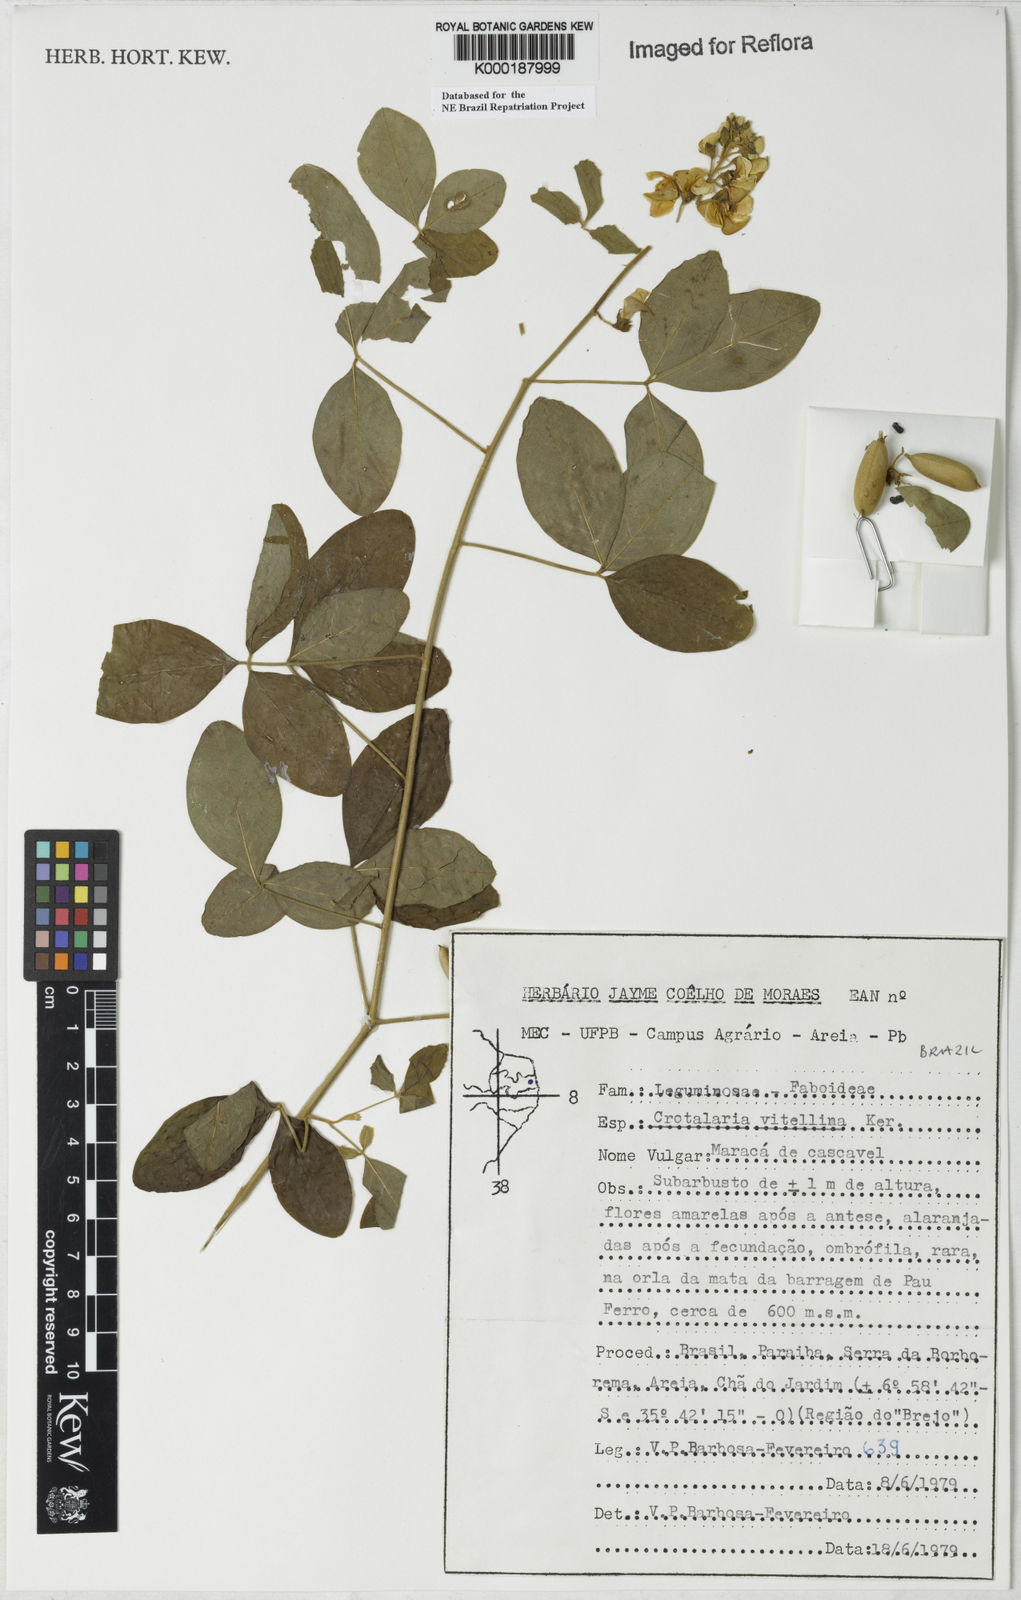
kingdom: Plantae
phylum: Tracheophyta
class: Magnoliopsida
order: Fabales
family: Fabaceae
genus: Crotalaria
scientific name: Crotalaria vitellina
